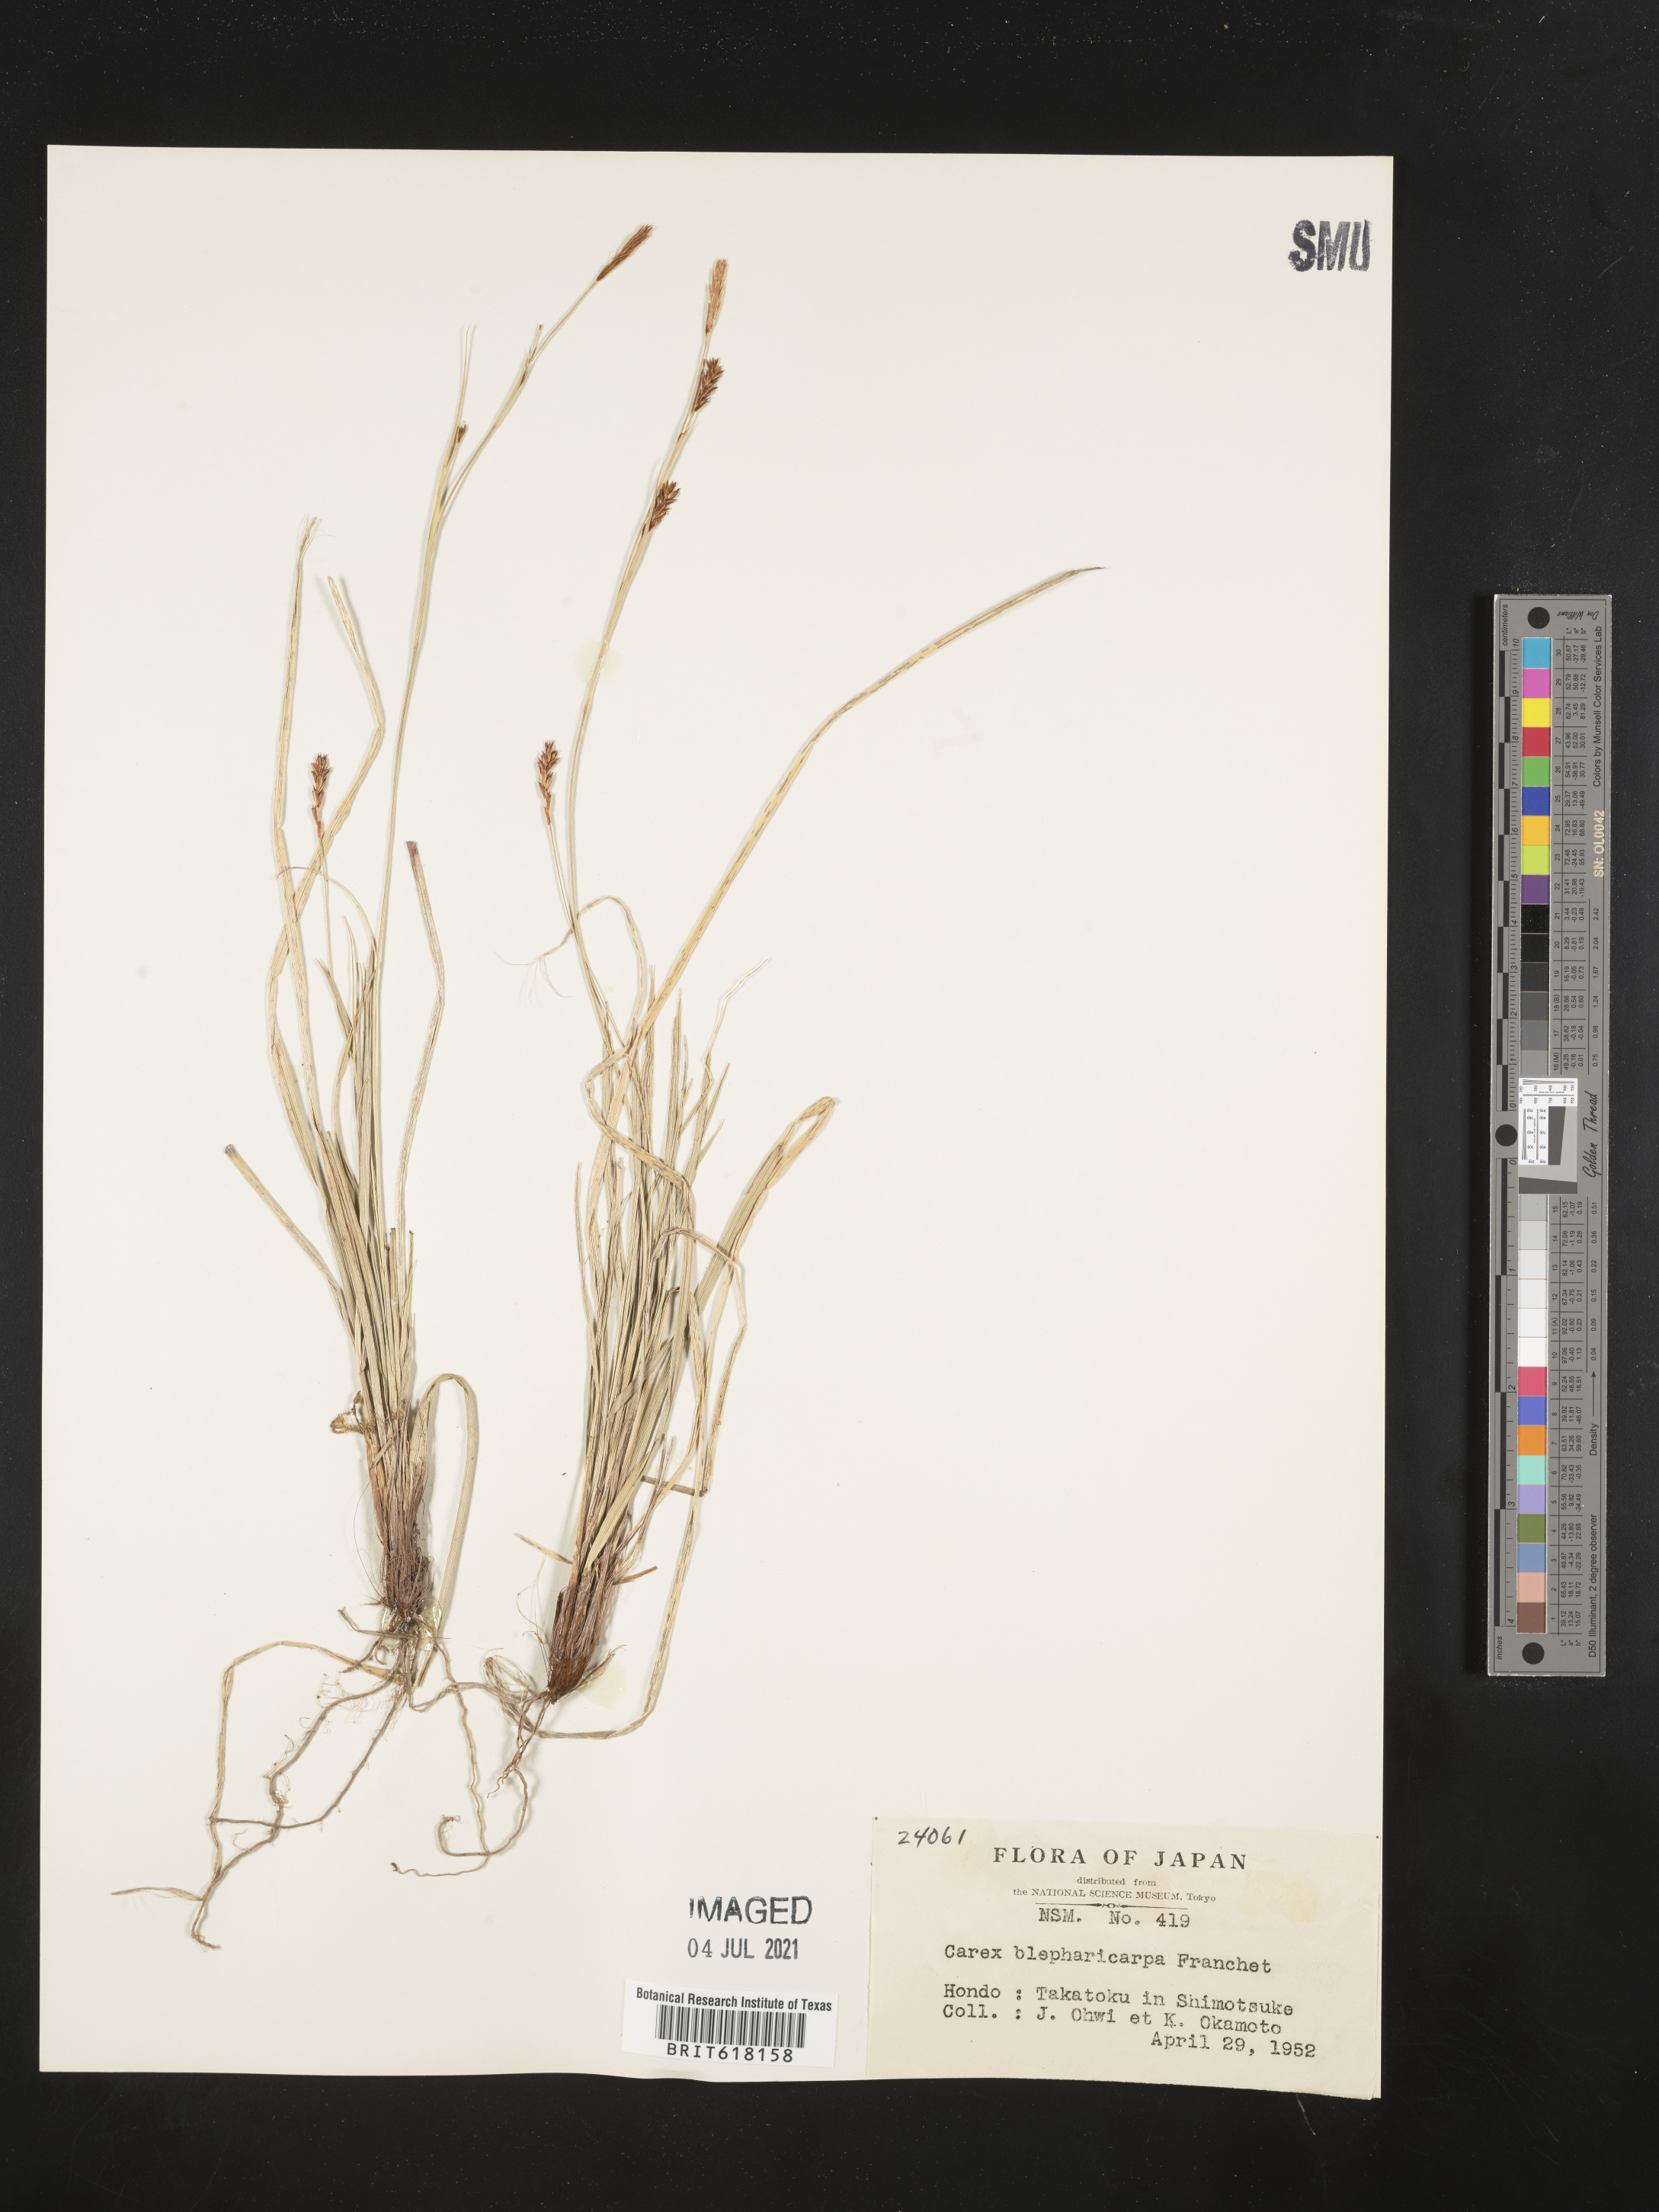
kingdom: Plantae
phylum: Tracheophyta
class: Liliopsida
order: Poales
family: Cyperaceae
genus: Carex
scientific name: Carex blepharicarpa
